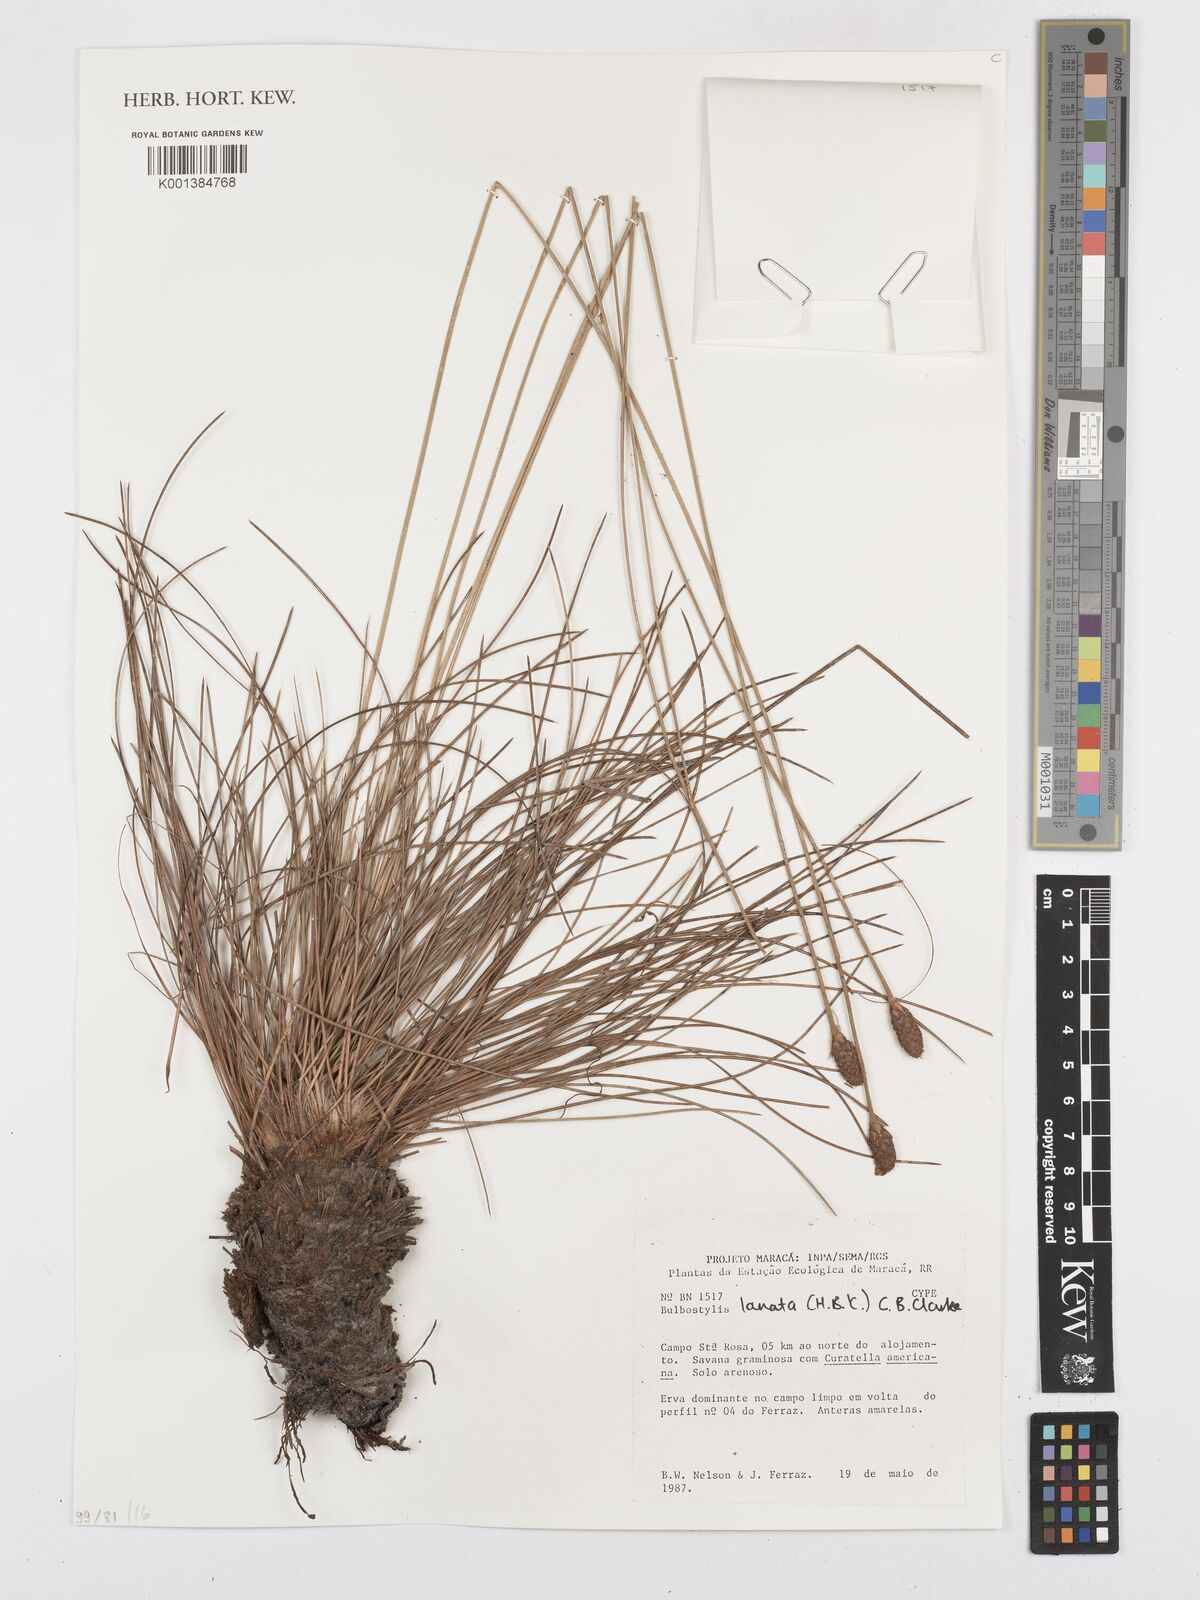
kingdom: Plantae
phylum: Tracheophyta
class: Liliopsida
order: Poales
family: Cyperaceae
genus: Bulbostylis
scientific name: Bulbostylis lanata
